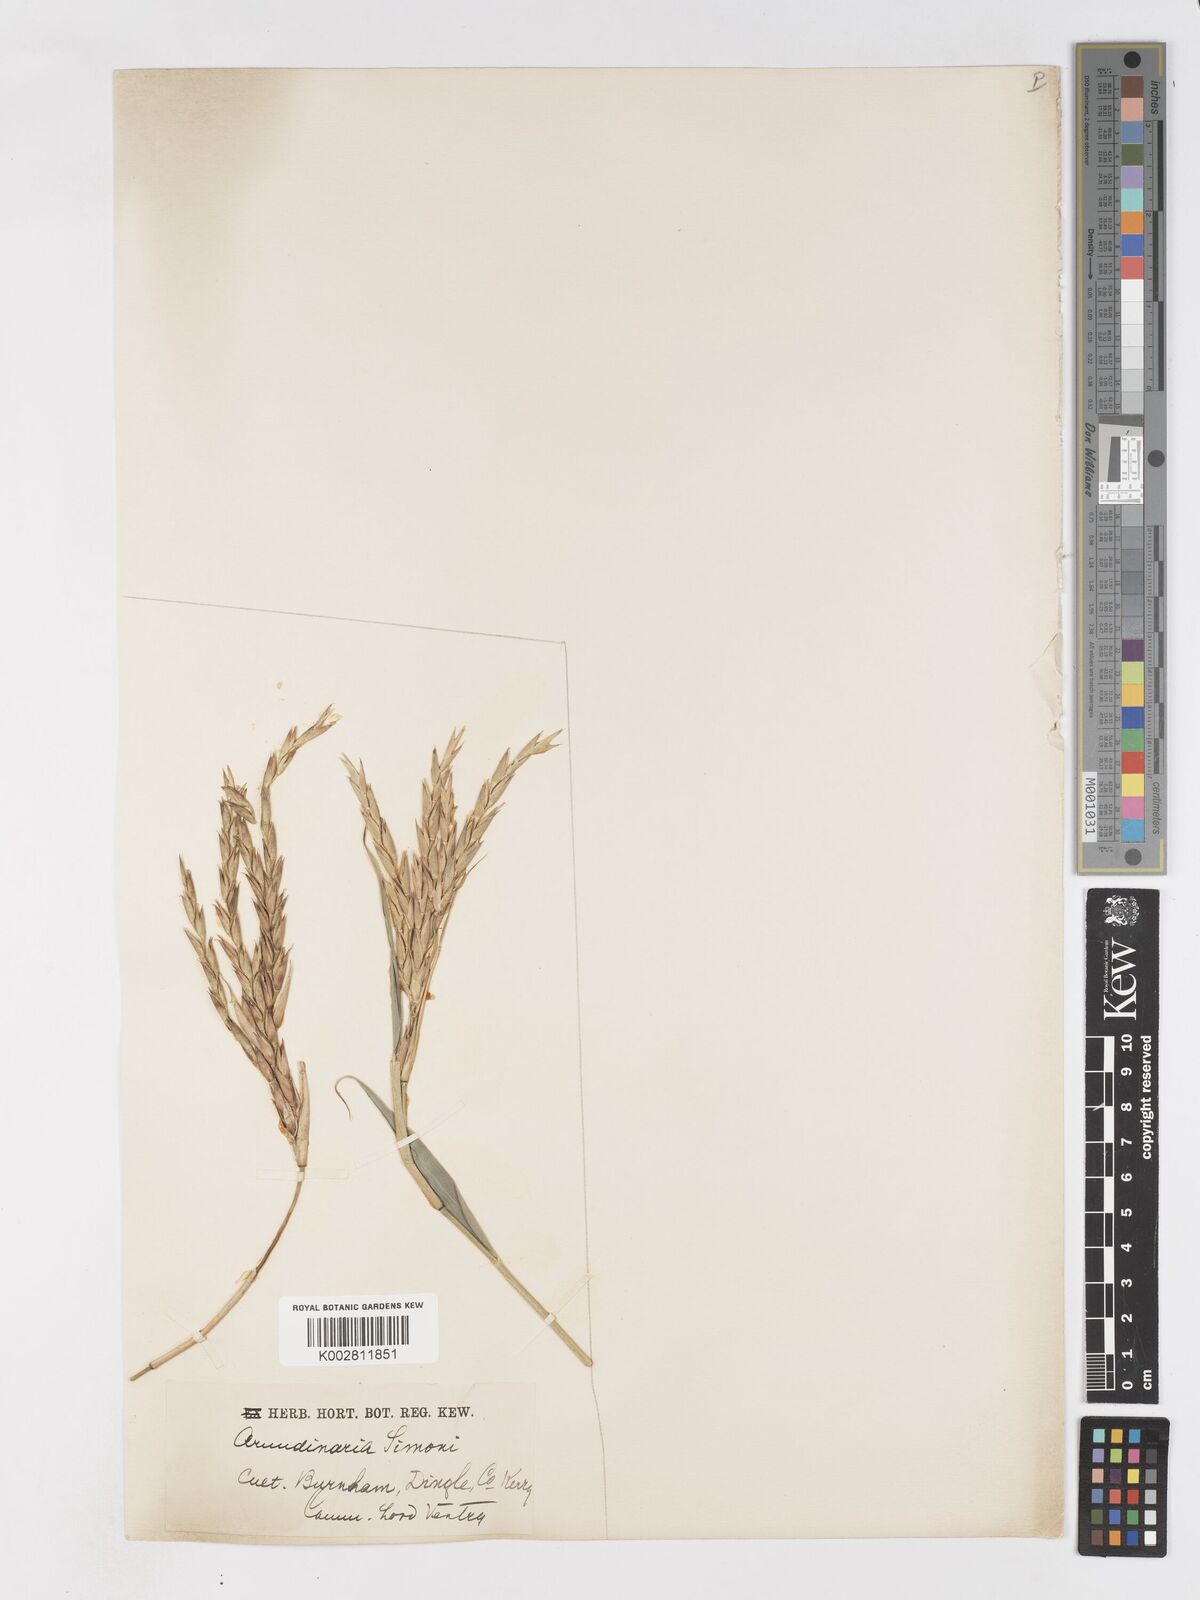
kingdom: Plantae
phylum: Tracheophyta
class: Liliopsida
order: Poales
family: Poaceae
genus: Pleioblastus
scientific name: Pleioblastus simonii
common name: Simon bamboo
